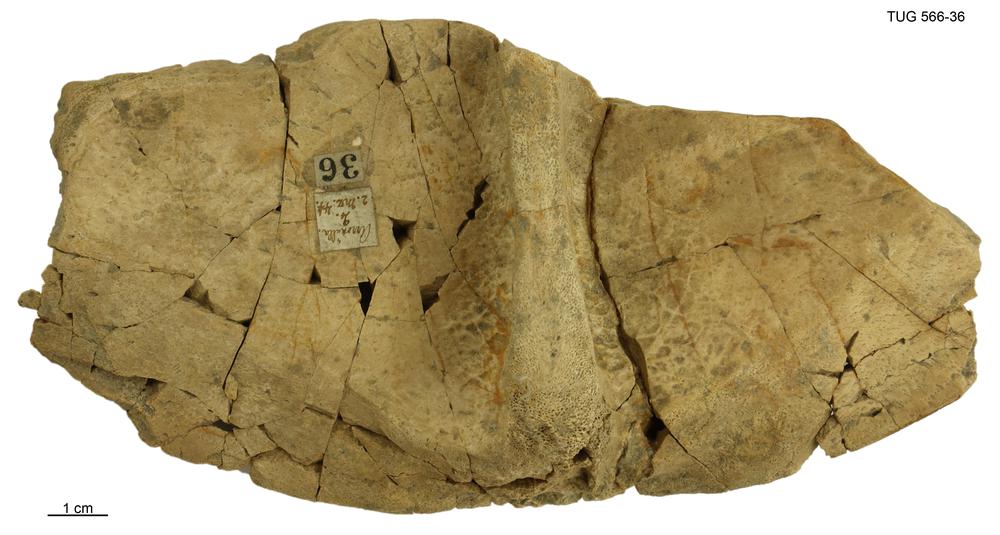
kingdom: Animalia
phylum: Chordata
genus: Homosteus
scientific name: Homosteus sulcatus
